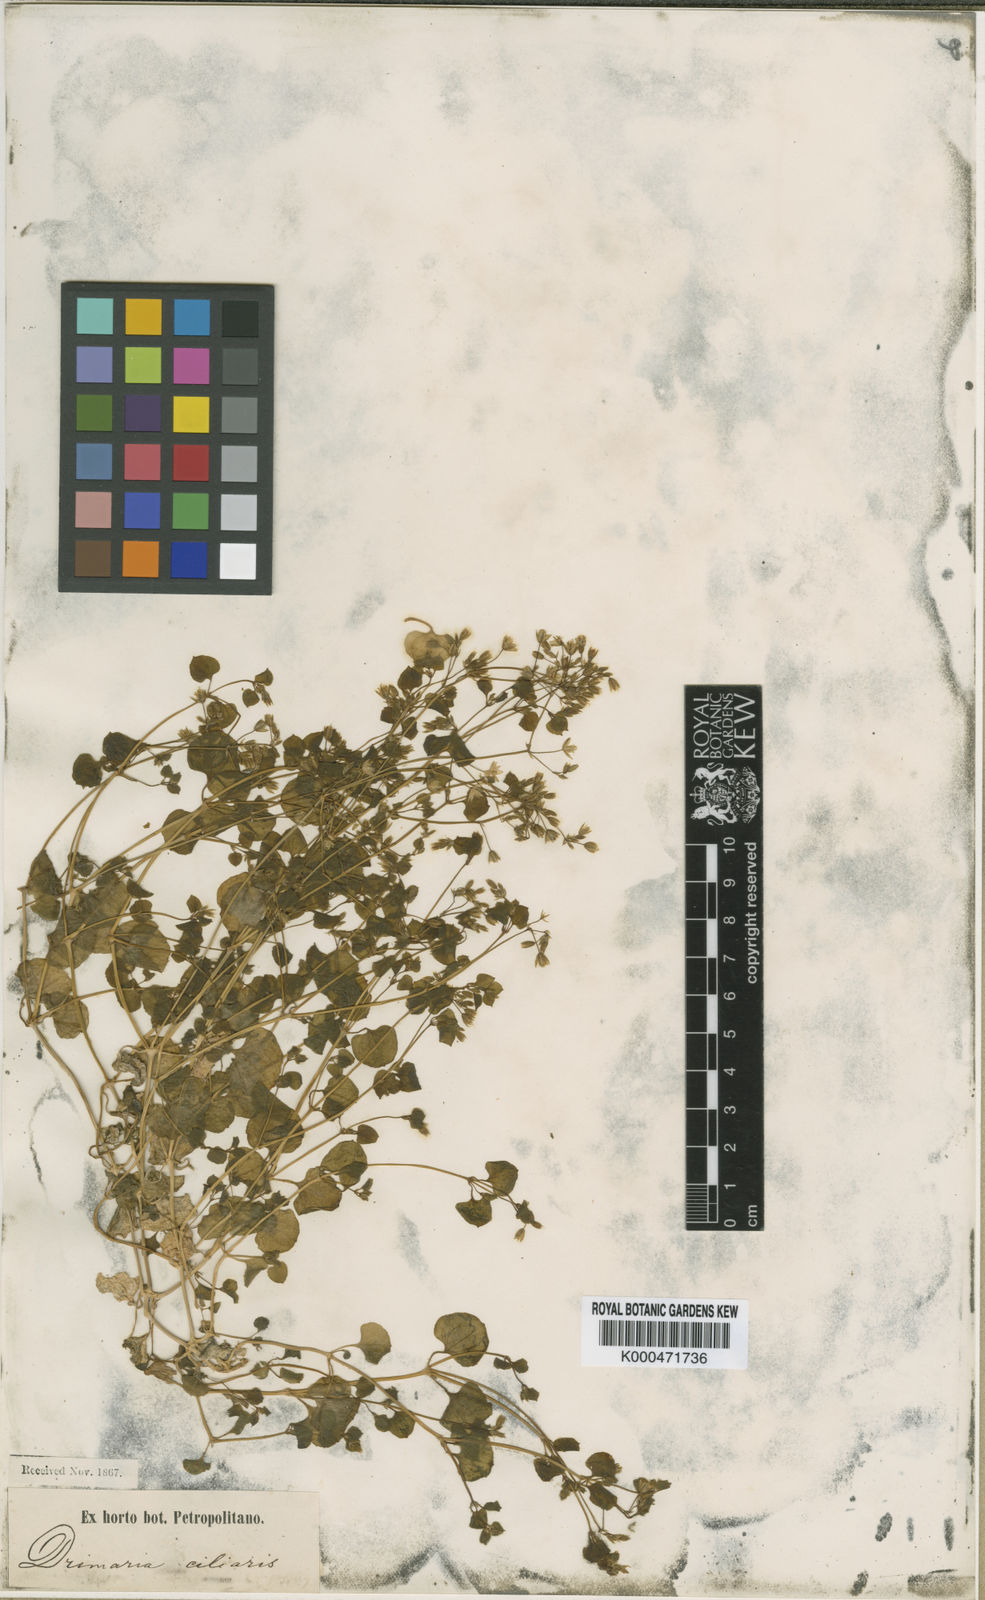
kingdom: Plantae
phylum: Tracheophyta
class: Magnoliopsida
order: Caryophyllales
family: Caryophyllaceae
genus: Drymaria
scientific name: Drymaria villosa
